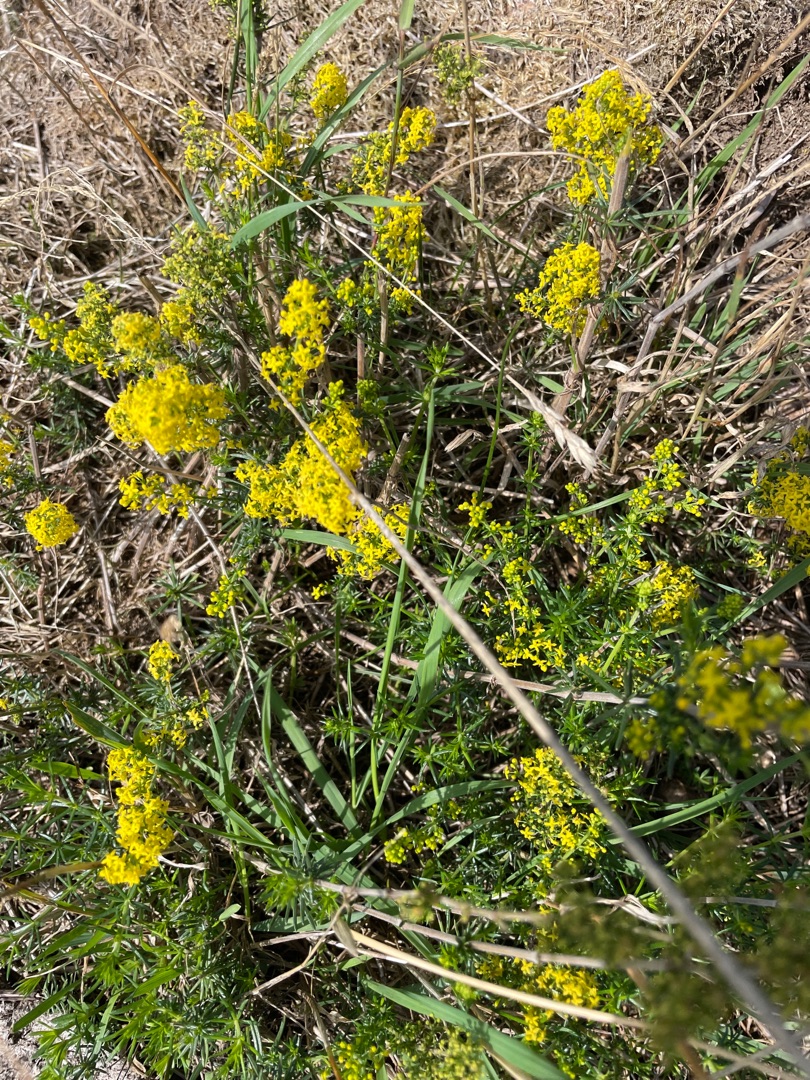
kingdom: Plantae
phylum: Tracheophyta
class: Magnoliopsida
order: Gentianales
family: Rubiaceae
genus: Galium
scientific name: Galium verum
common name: Gul snerre
